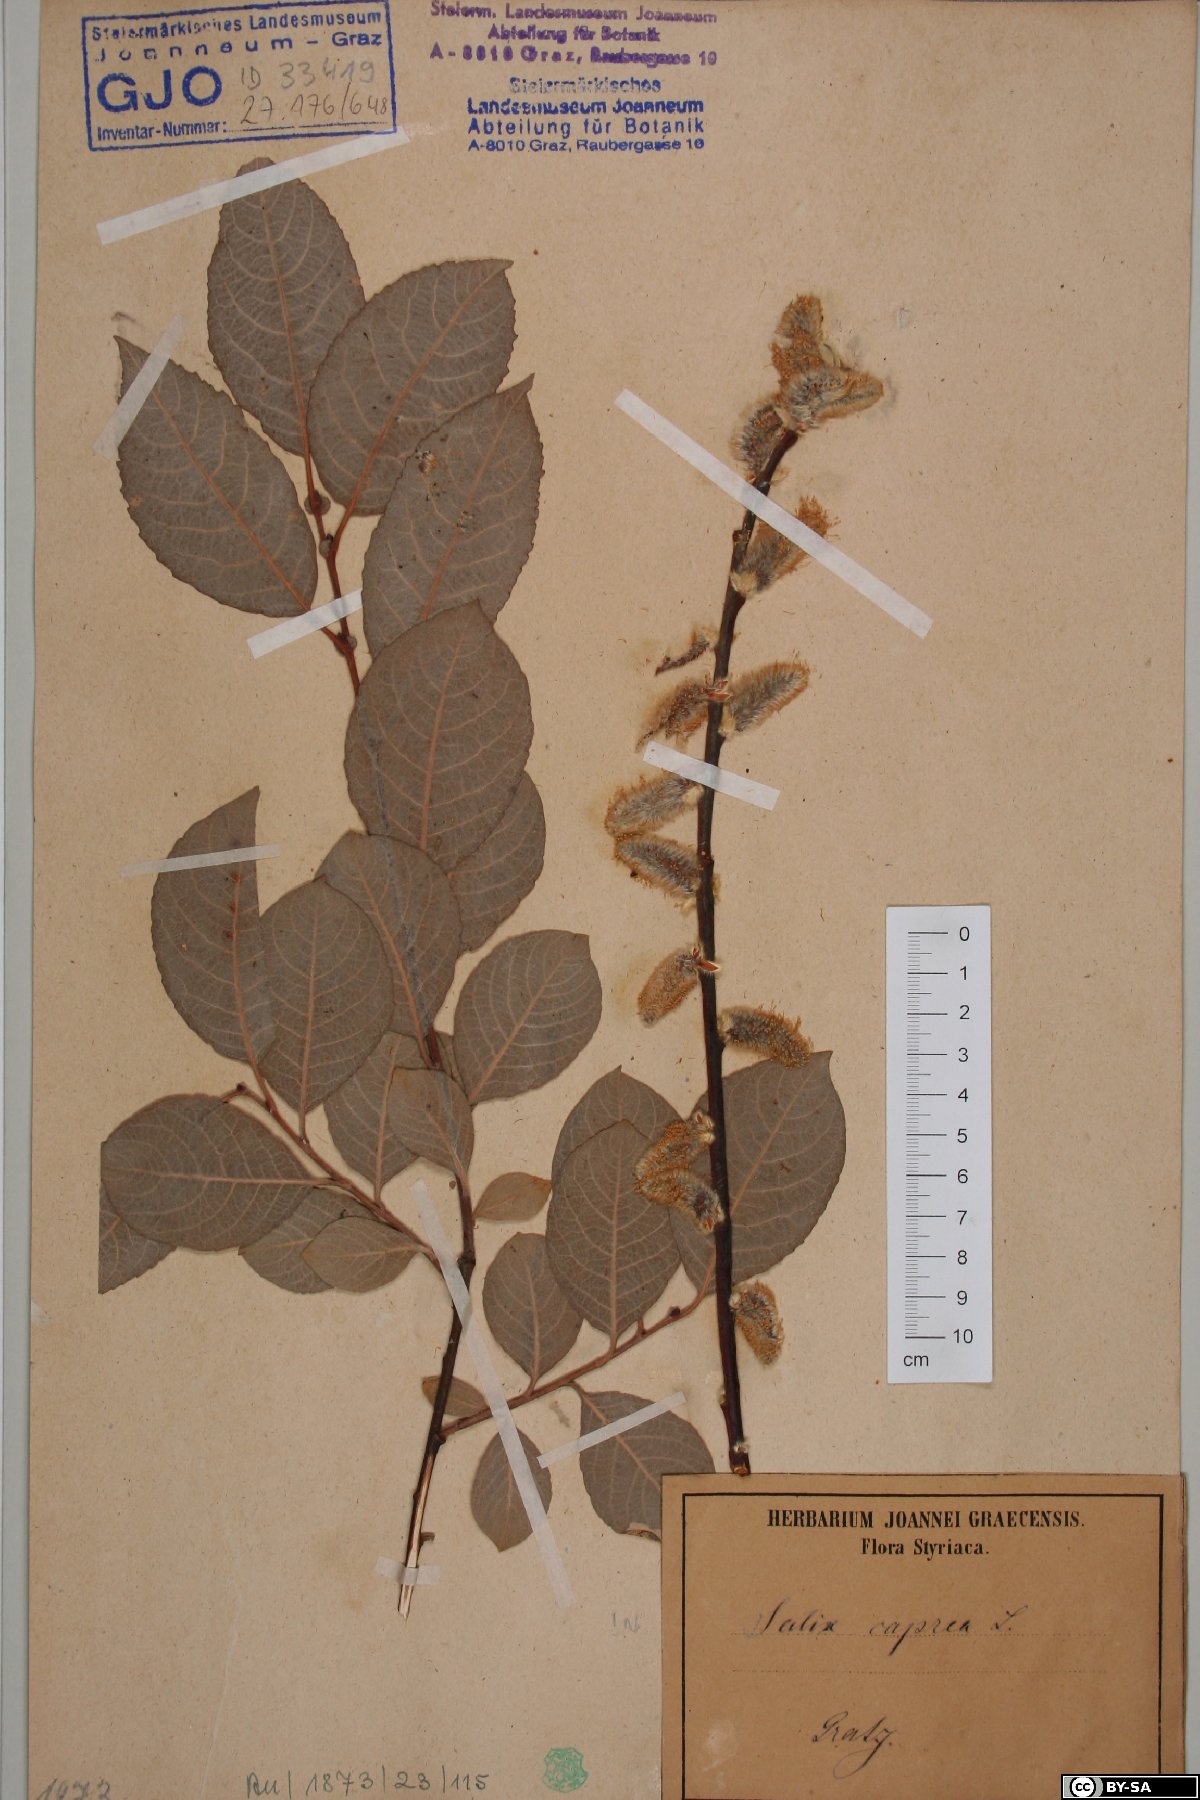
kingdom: Plantae
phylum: Tracheophyta
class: Magnoliopsida
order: Malpighiales
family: Salicaceae
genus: Salix
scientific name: Salix caprea
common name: Goat willow
